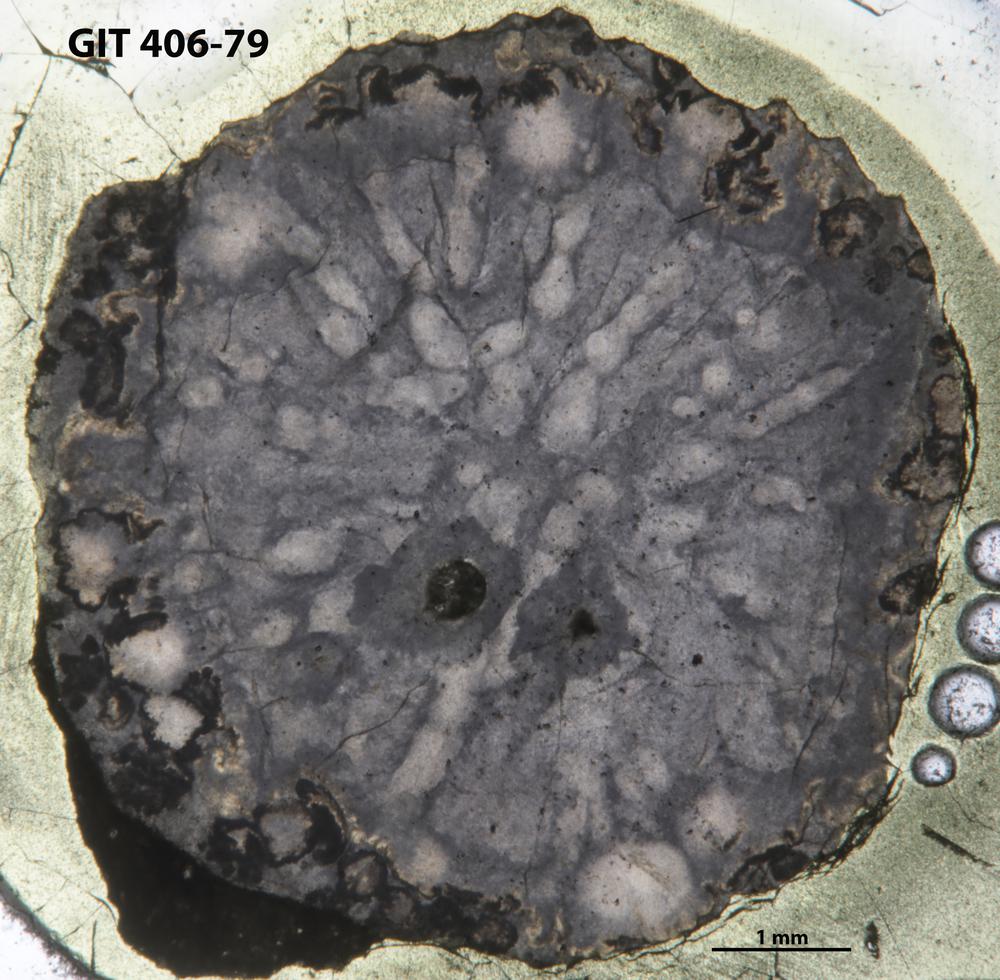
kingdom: Animalia
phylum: Cnidaria
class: Anthozoa
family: Palaeocyclidae
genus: Rhabdocyclus
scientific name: Rhabdocyclus aequispinatus
